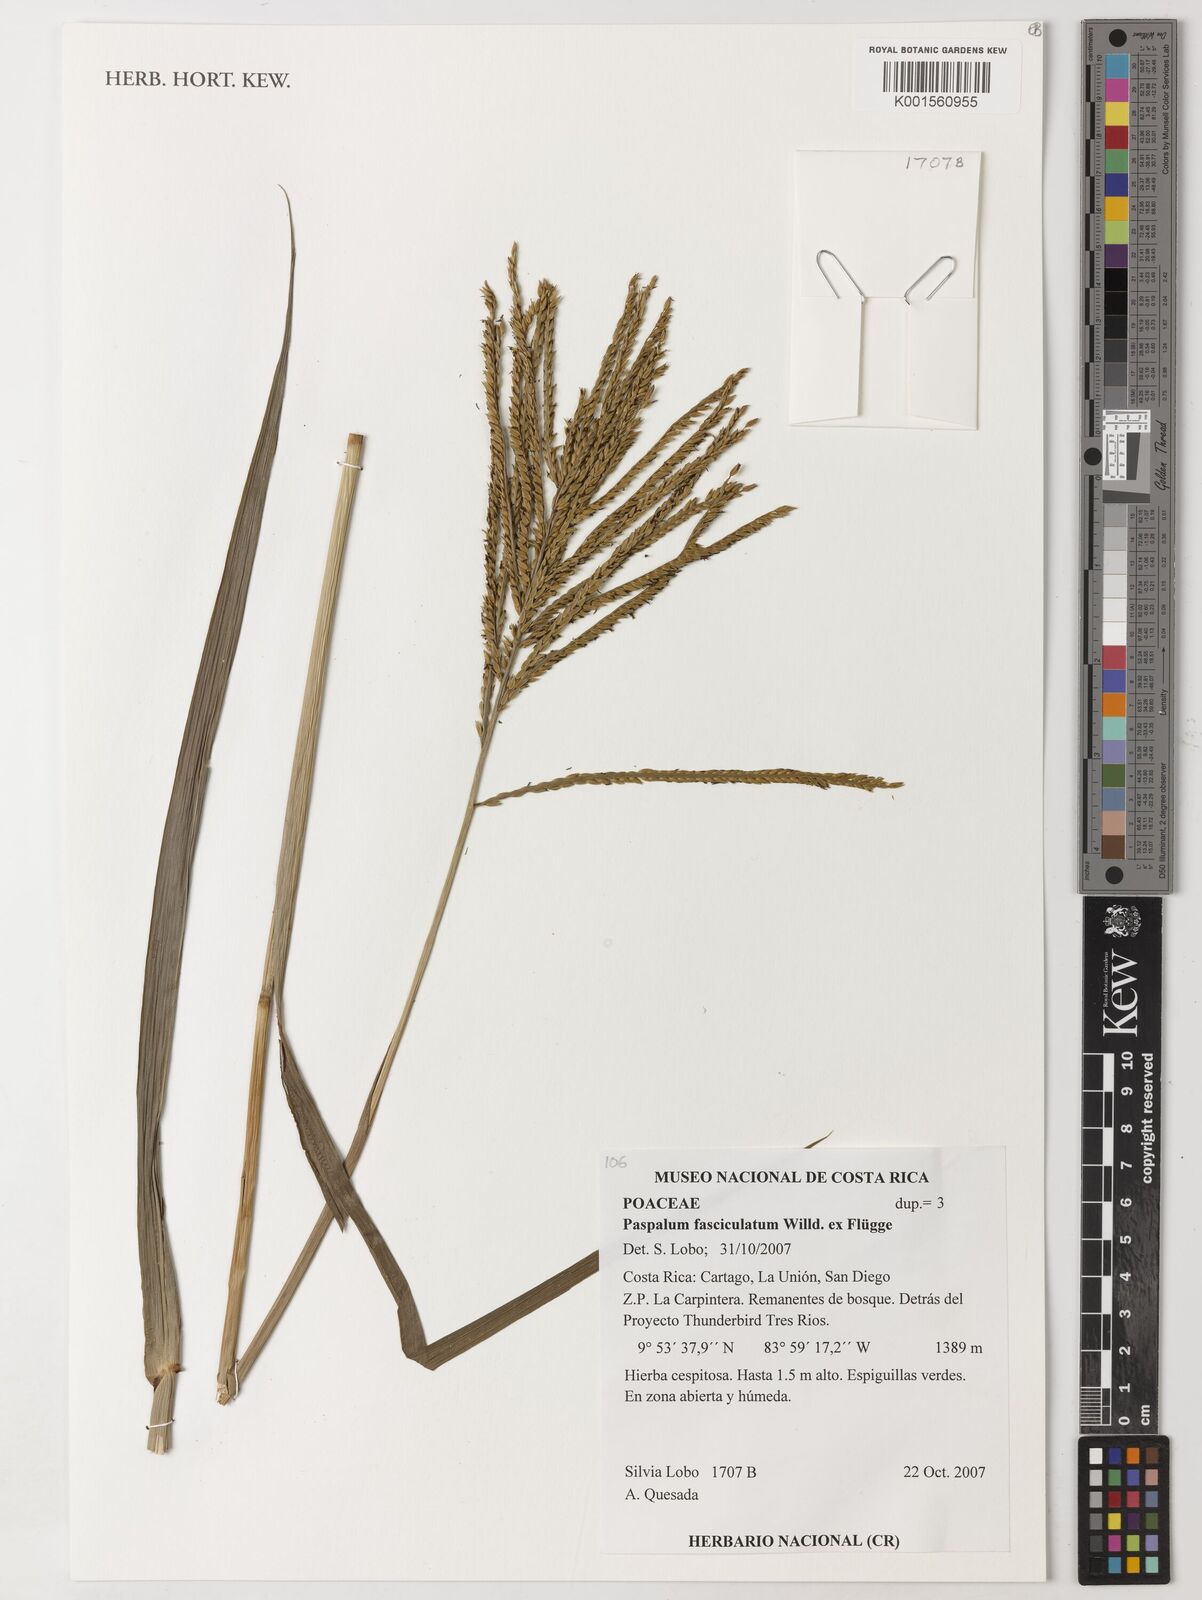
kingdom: Plantae
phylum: Tracheophyta
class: Liliopsida
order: Poales
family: Poaceae
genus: Paspalum
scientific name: Paspalum fasciculatum
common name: Bamboo grass
